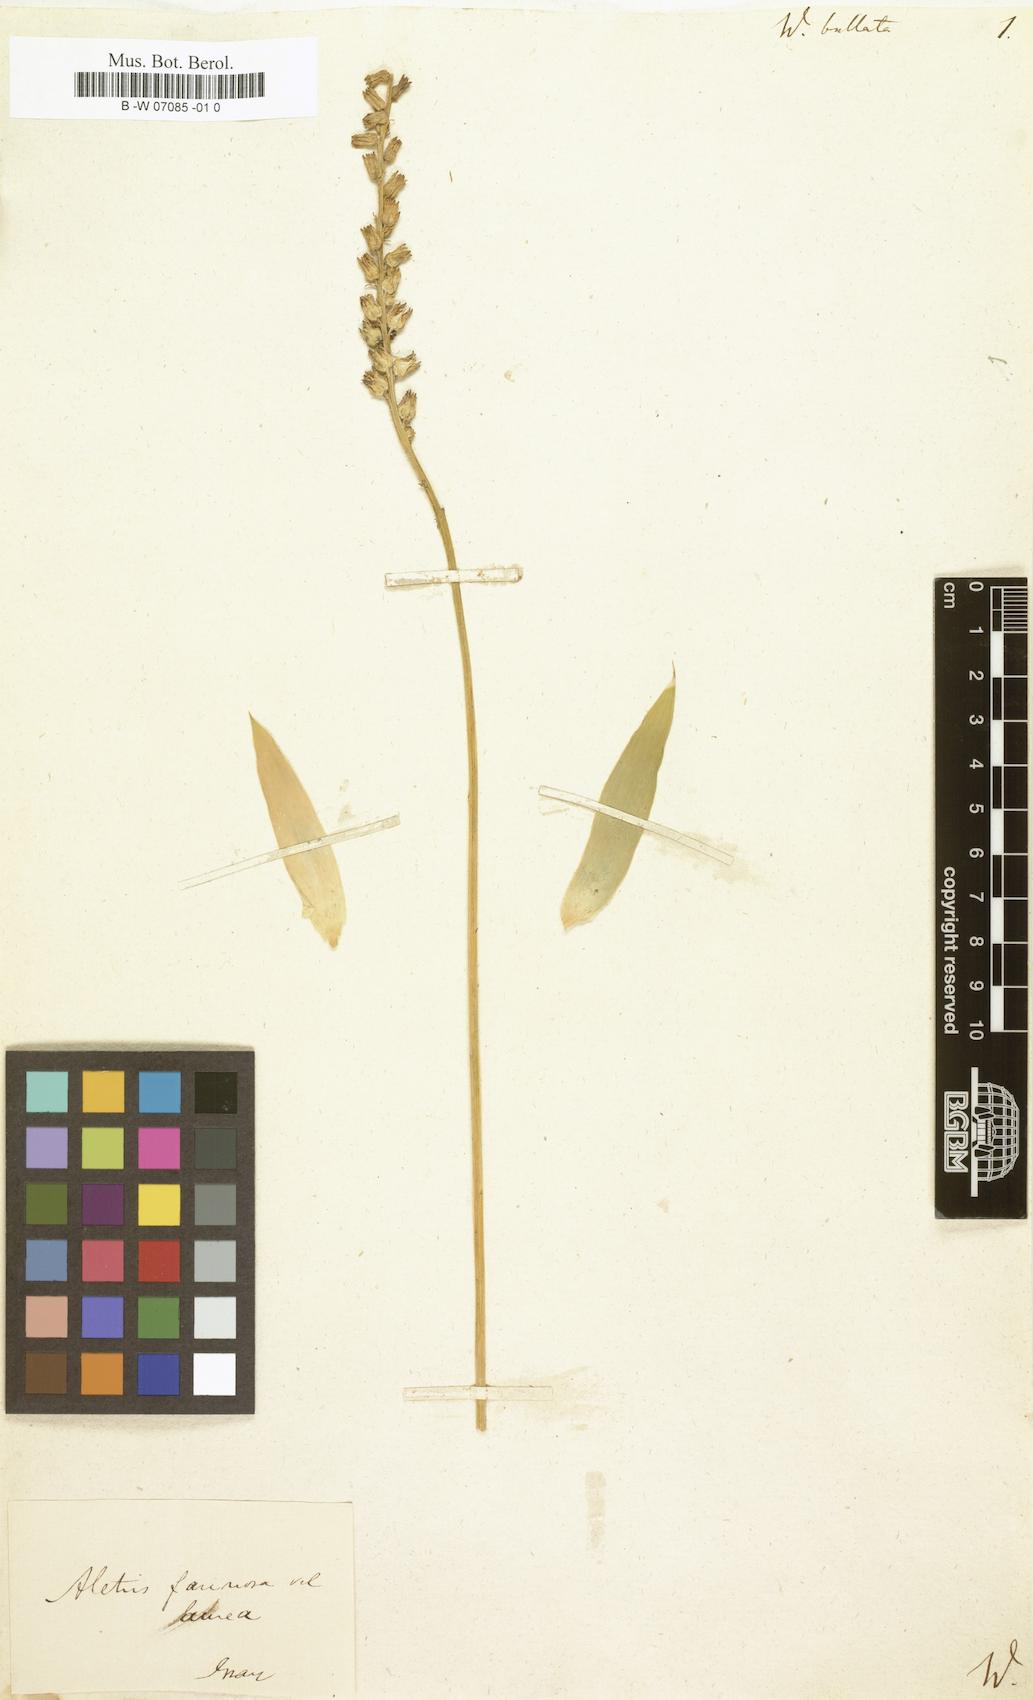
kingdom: Plantae
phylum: Tracheophyta
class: Liliopsida
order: Dioscoreales
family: Nartheciaceae
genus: Aletris
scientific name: Aletris aurea
